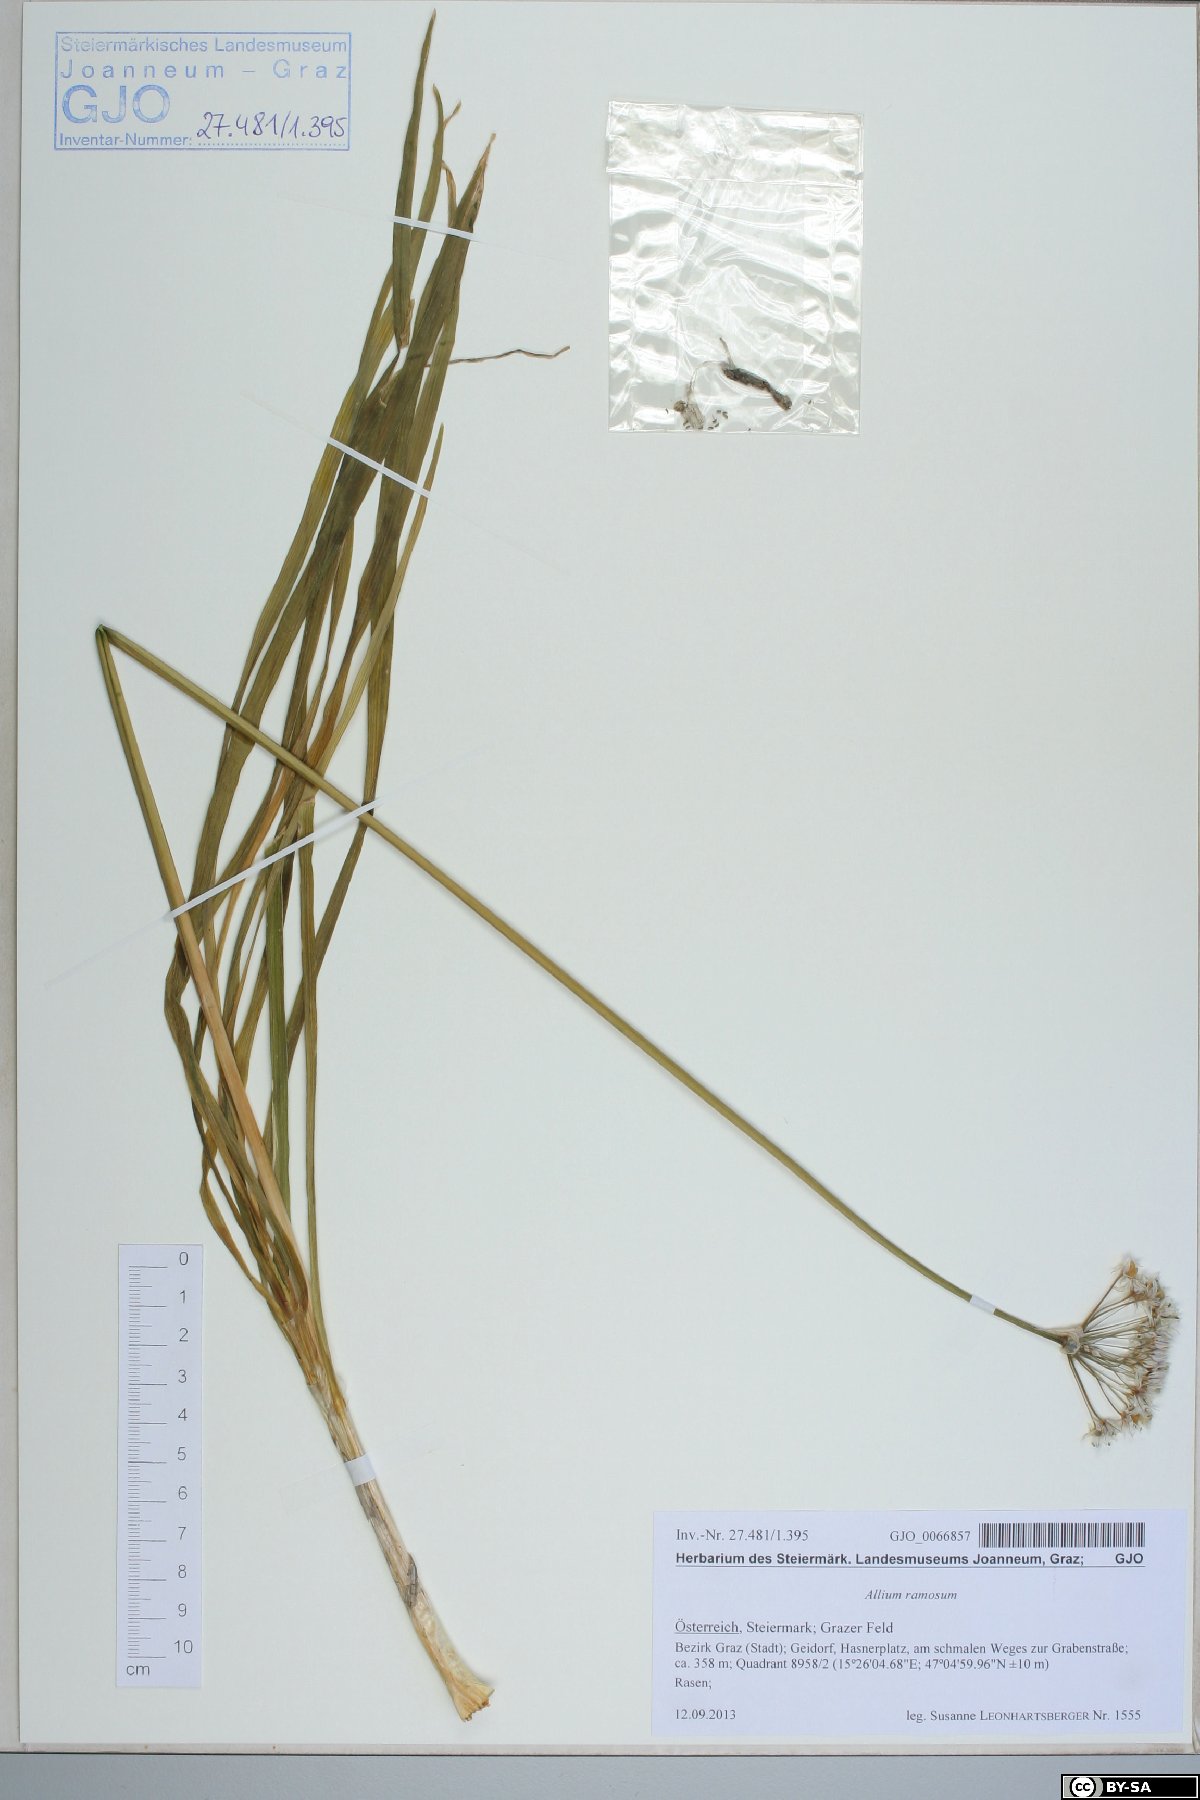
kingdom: Plantae
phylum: Tracheophyta
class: Liliopsida
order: Asparagales
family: Amaryllidaceae
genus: Allium
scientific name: Allium tuberosum
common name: Chinese chives
